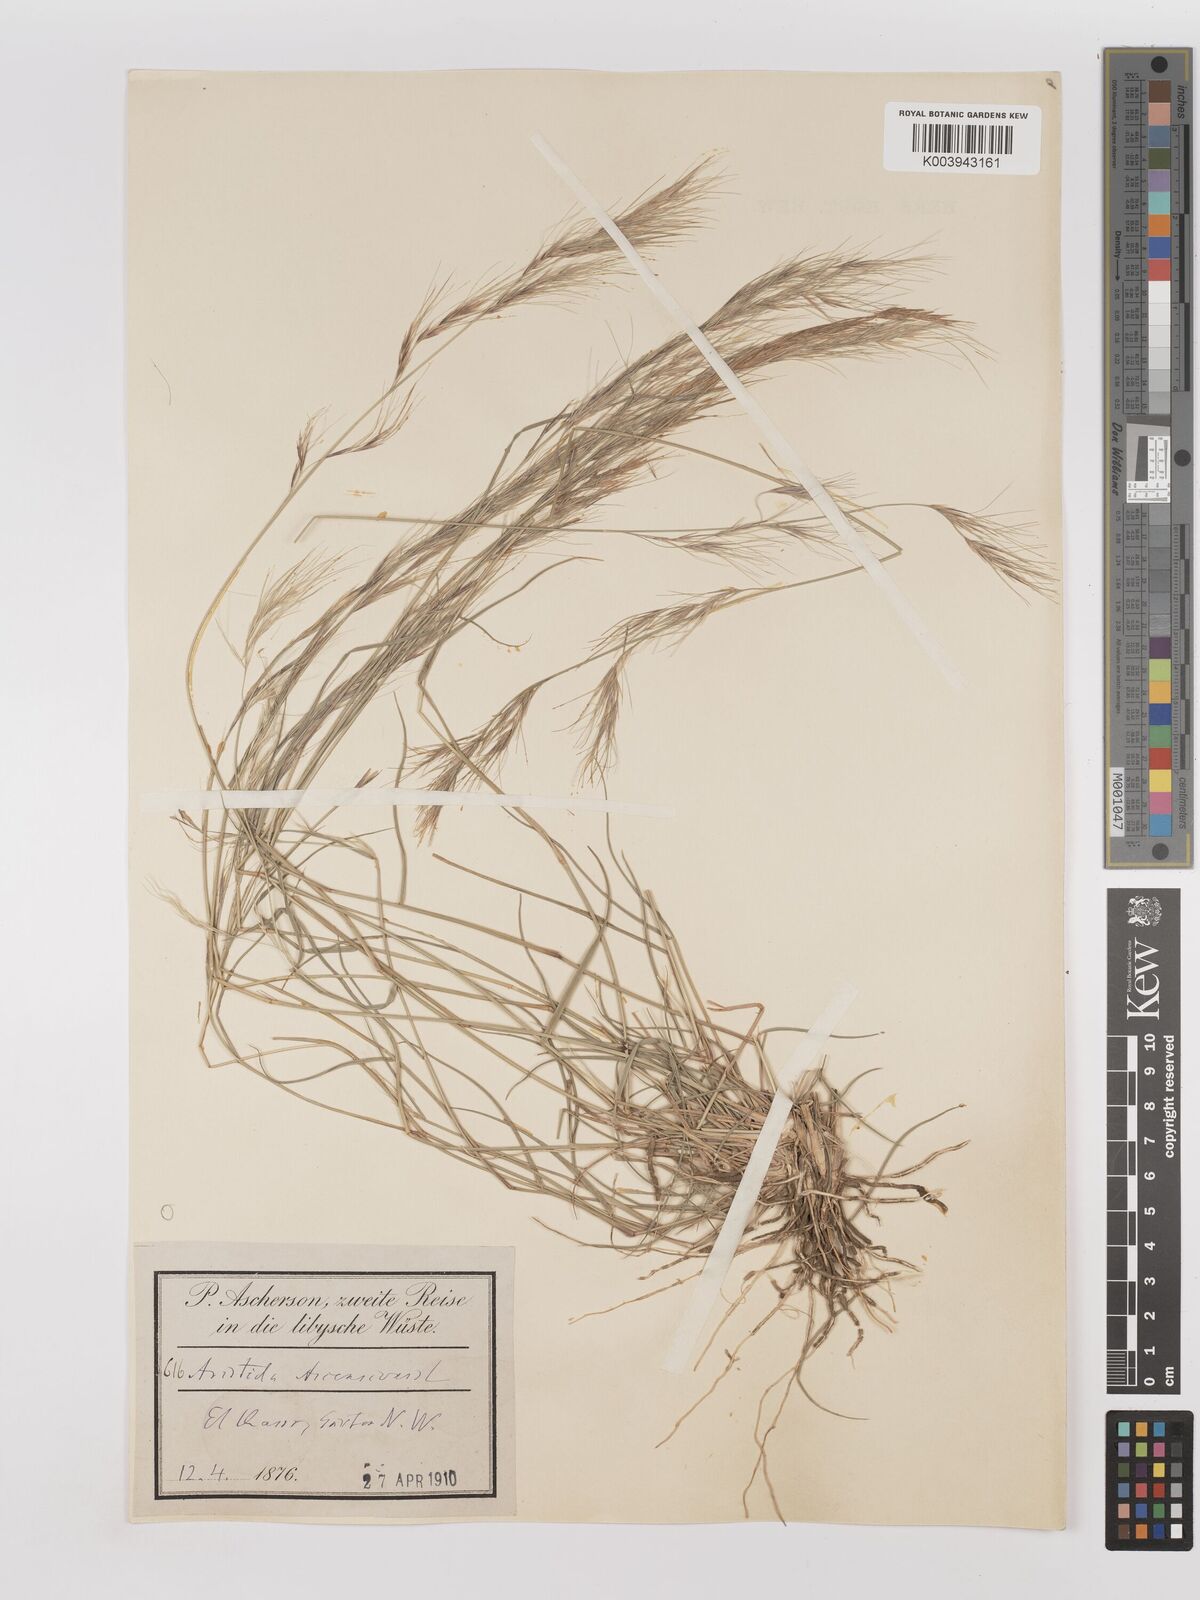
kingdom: Plantae
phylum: Tracheophyta
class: Liliopsida
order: Poales
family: Poaceae
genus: Aristida
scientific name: Aristida adscensionis
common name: Sixweeks threeawn
